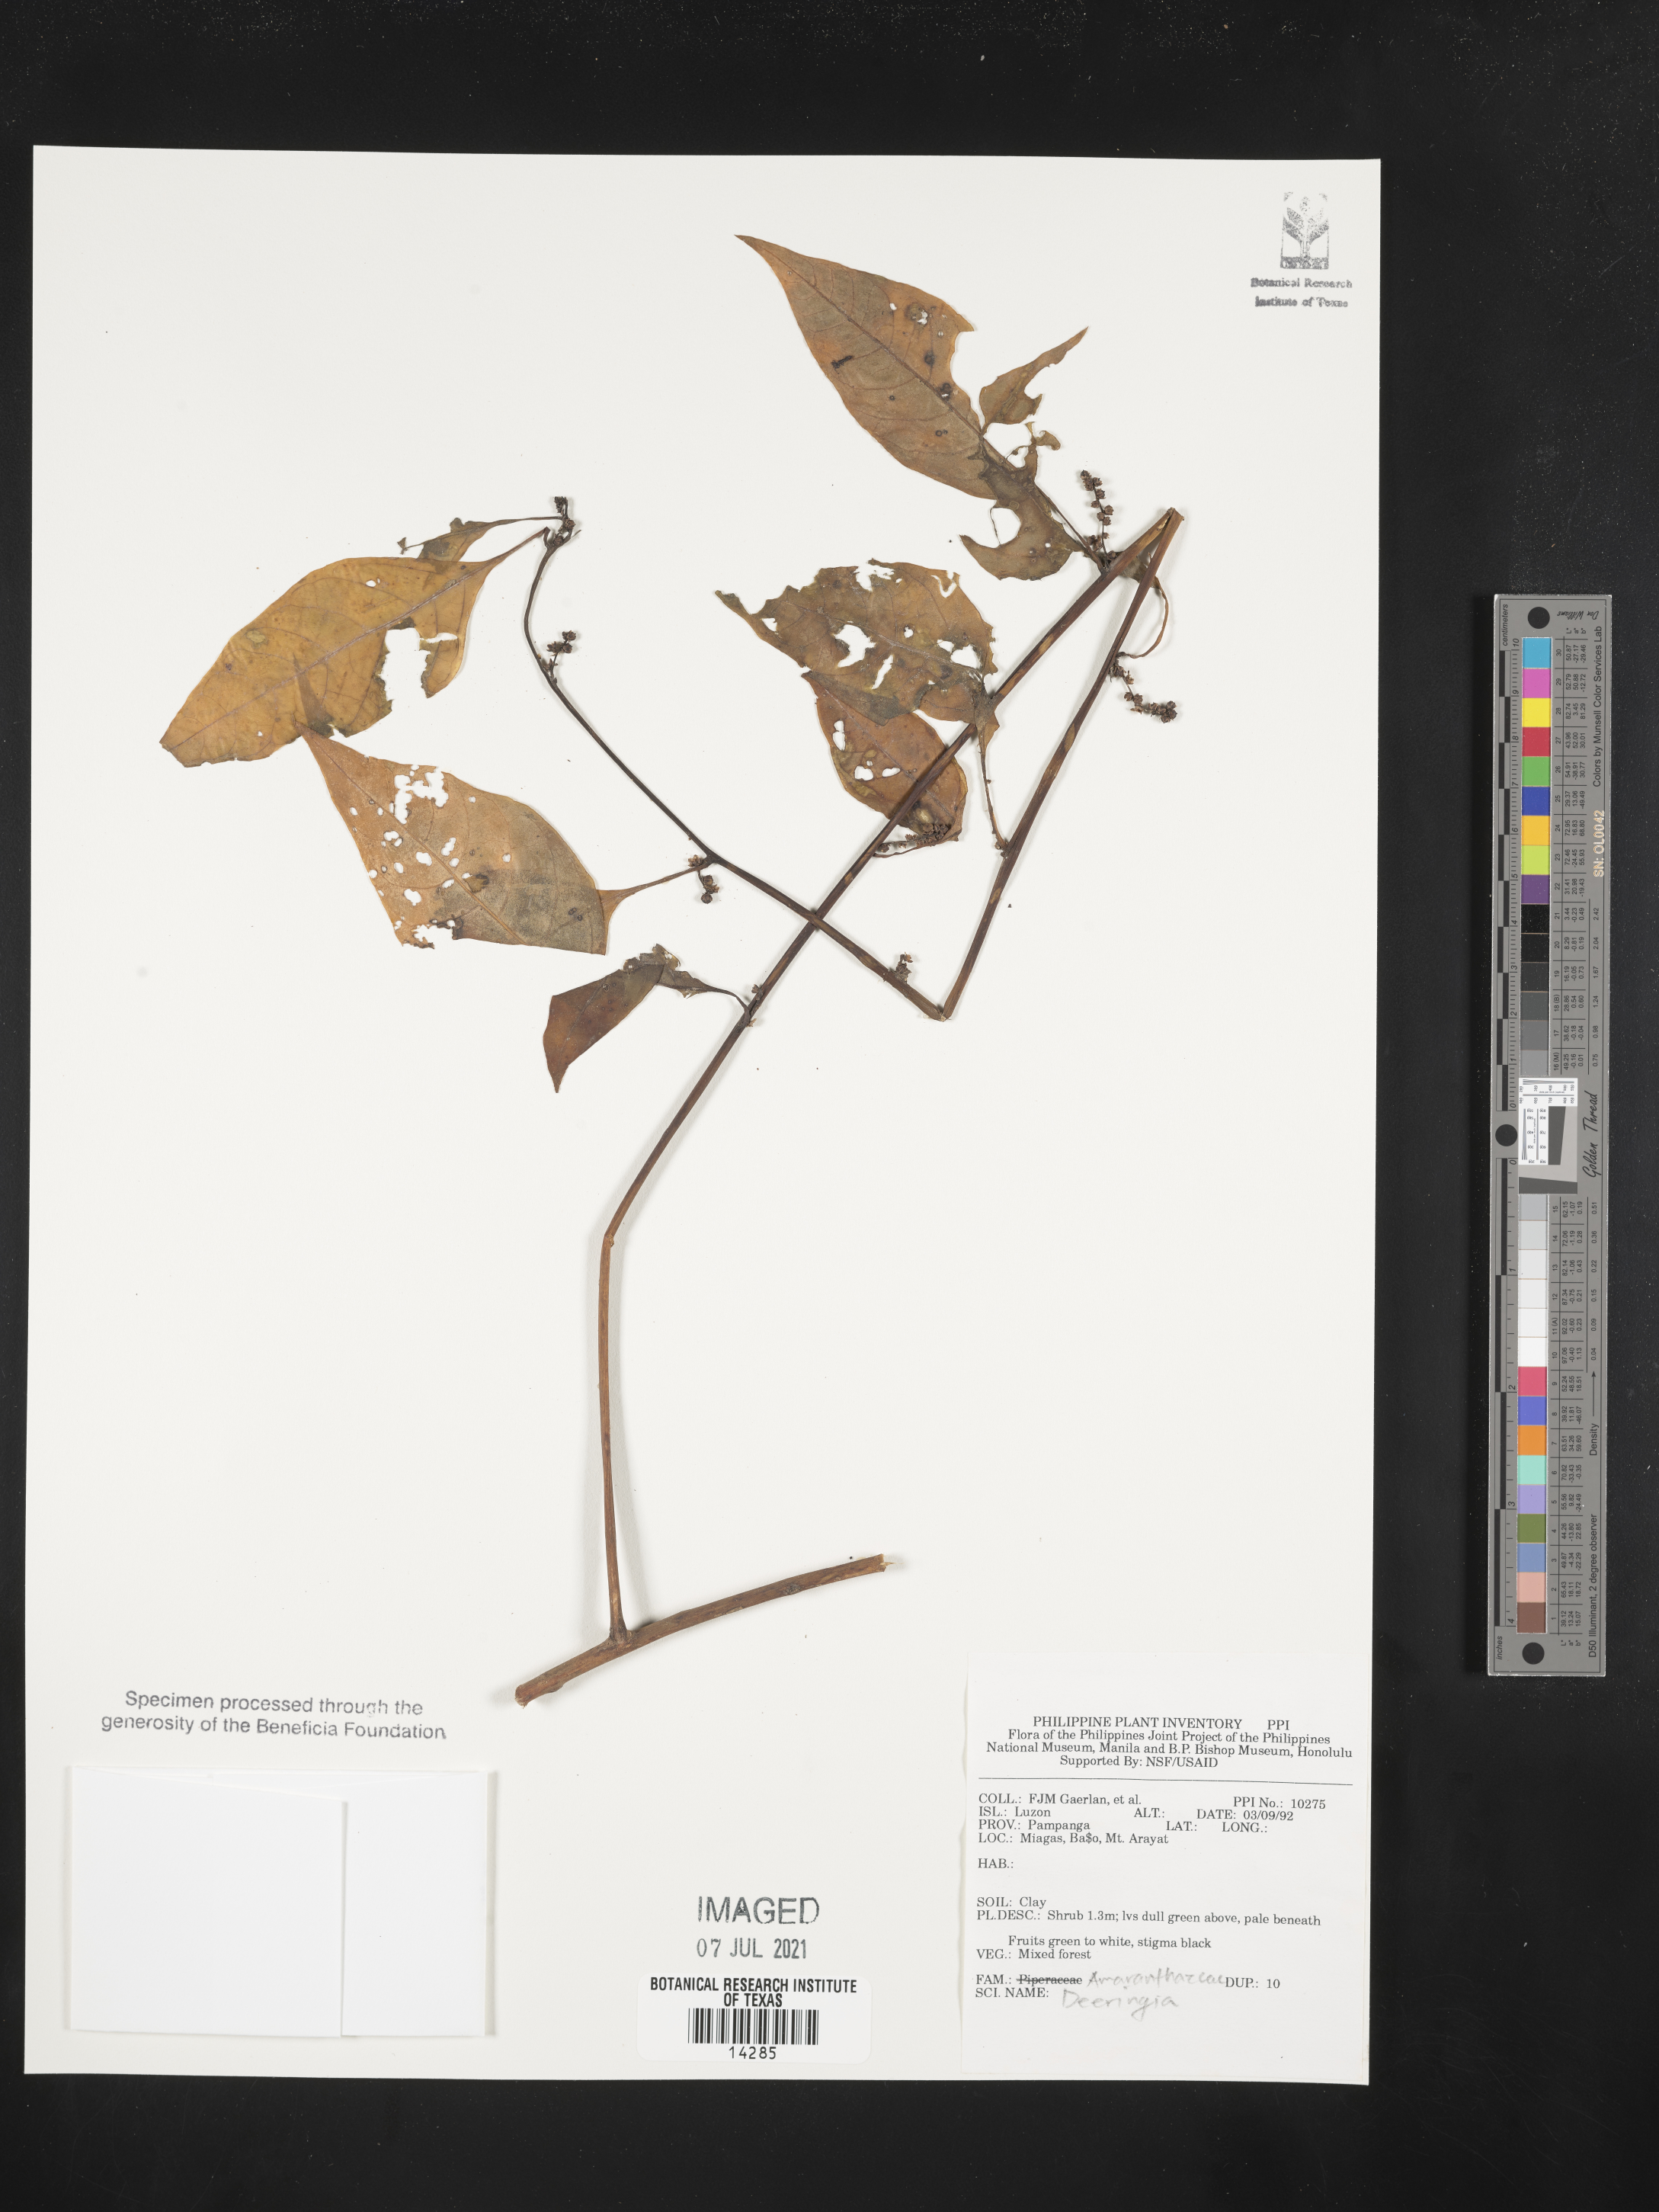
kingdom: Plantae
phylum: Tracheophyta
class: Magnoliopsida
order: Caryophyllales
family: Amaranthaceae
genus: Deeringia
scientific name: Deeringia
